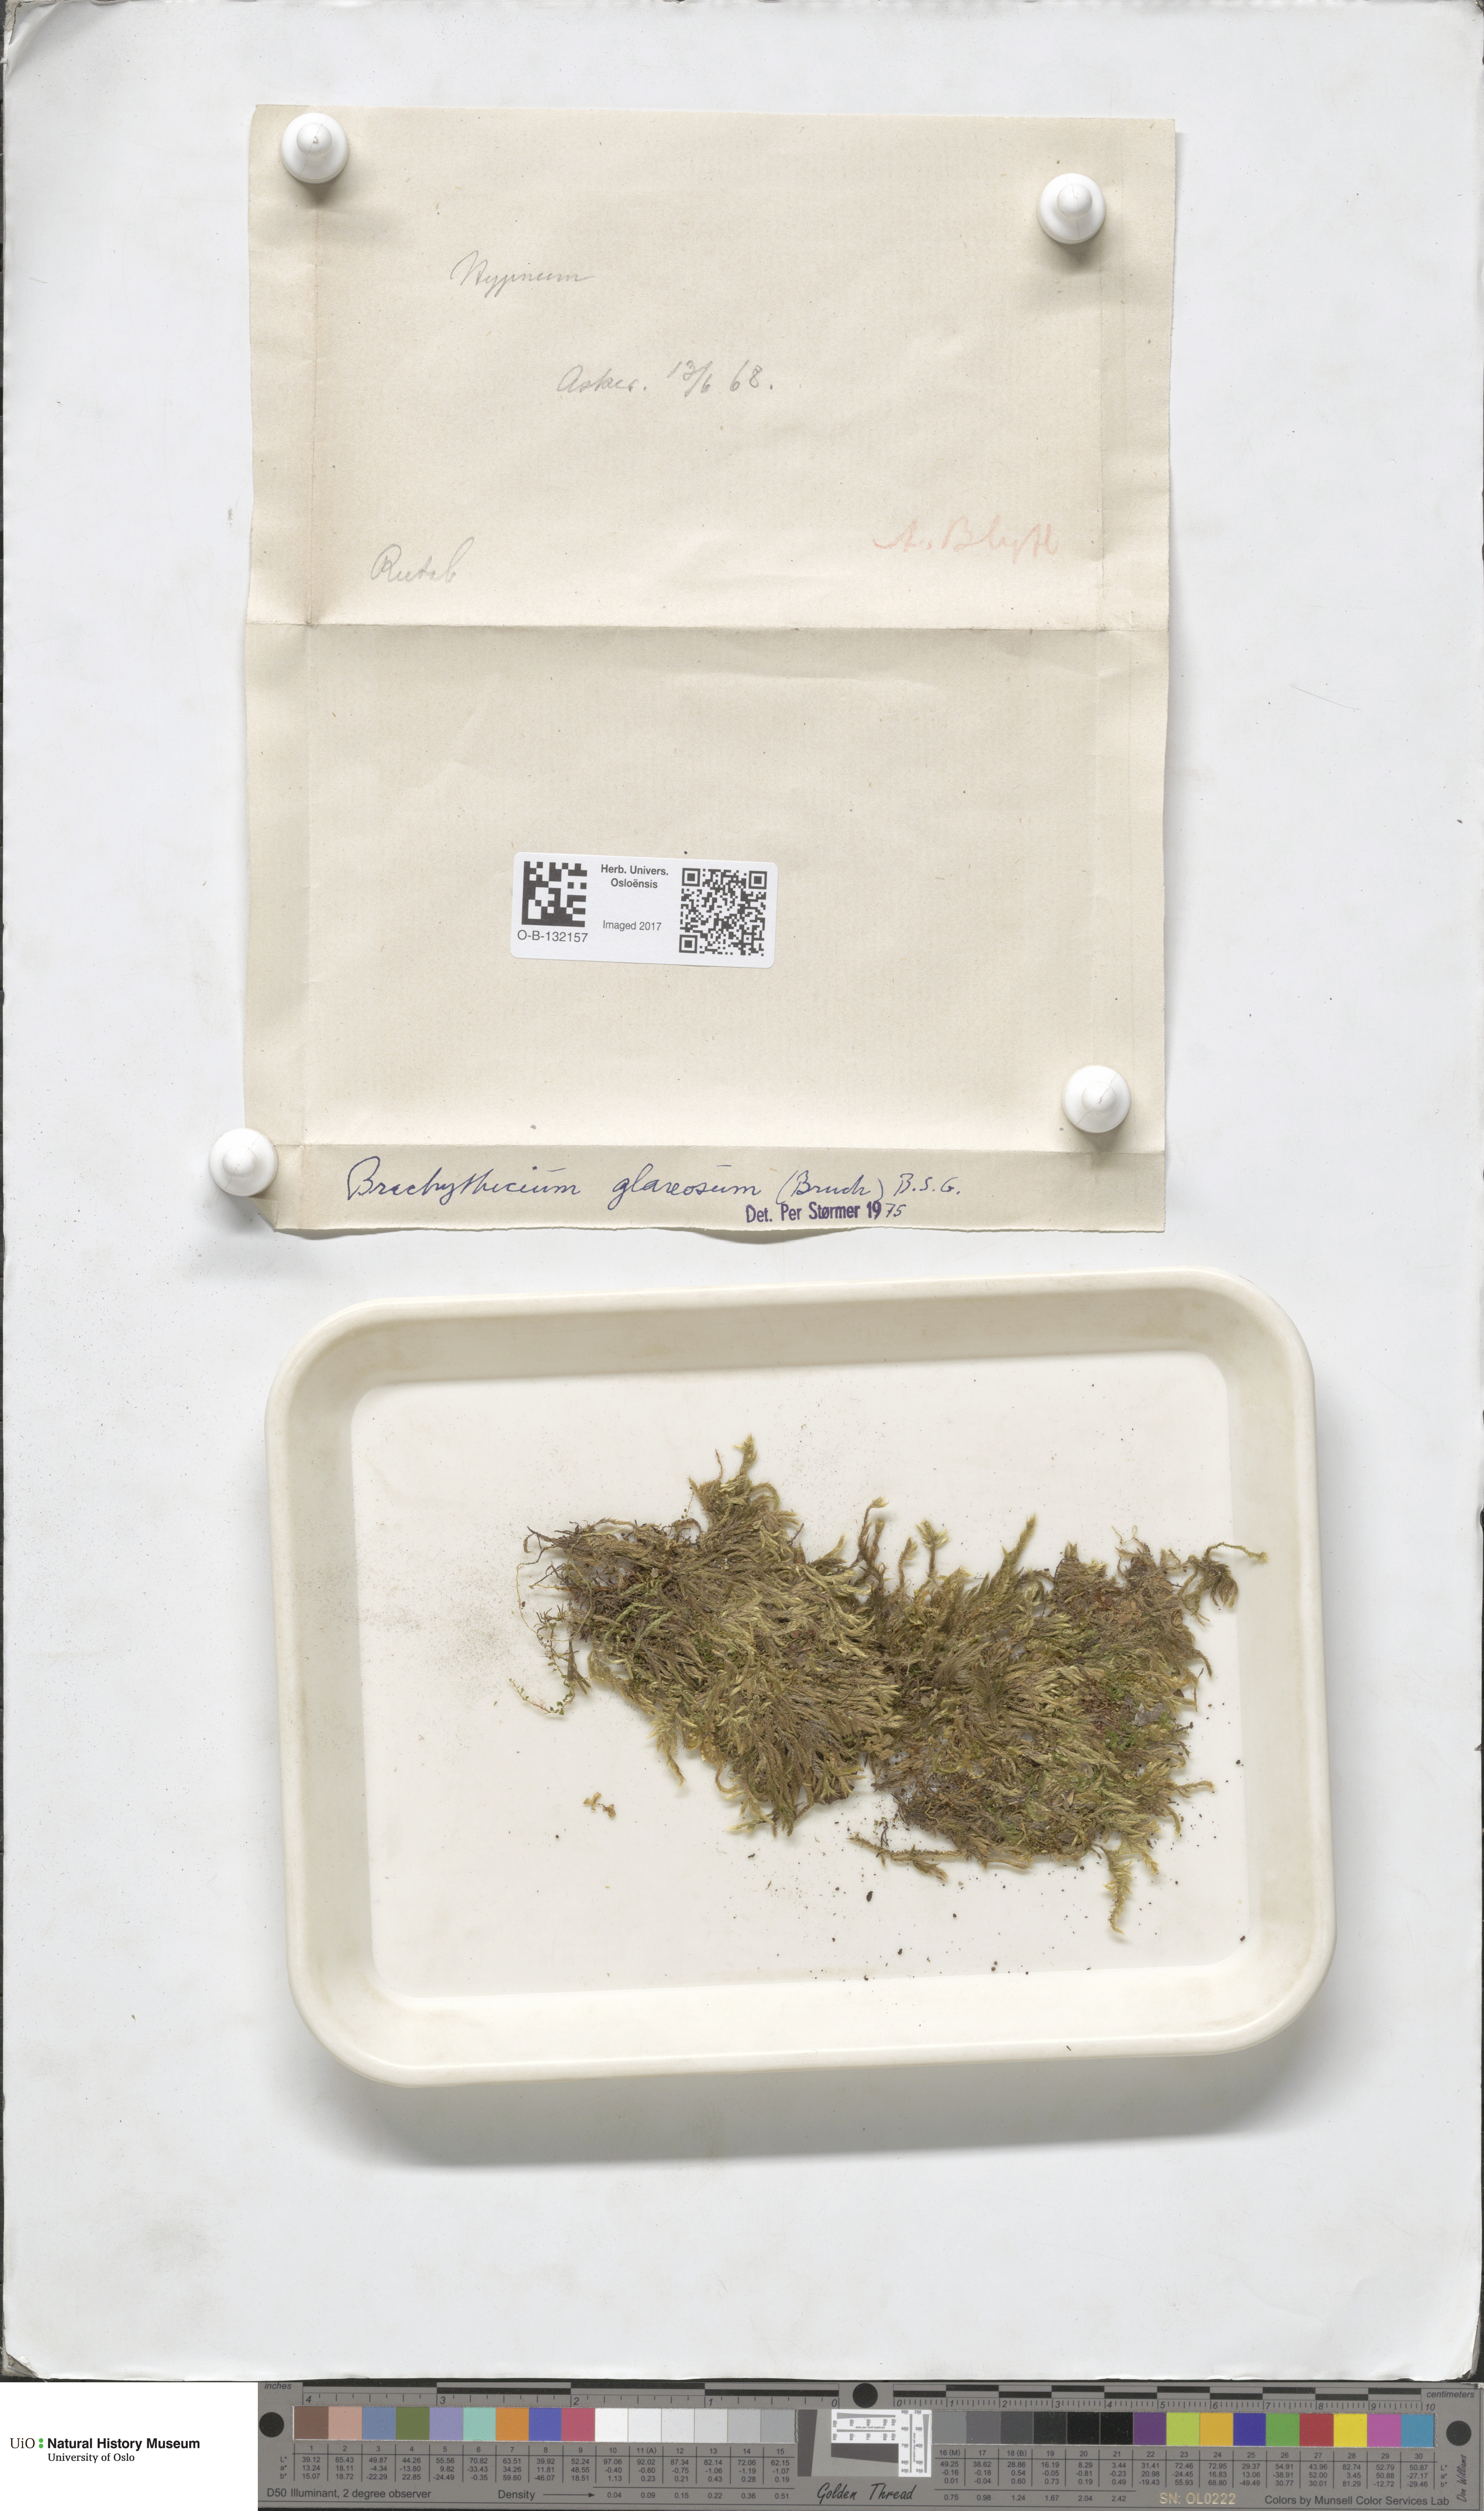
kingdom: Plantae
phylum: Bryophyta
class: Bryopsida
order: Hypnales
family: Brachytheciaceae
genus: Brachythecium
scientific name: Brachythecium glareosum
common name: Streaky feather-moss
